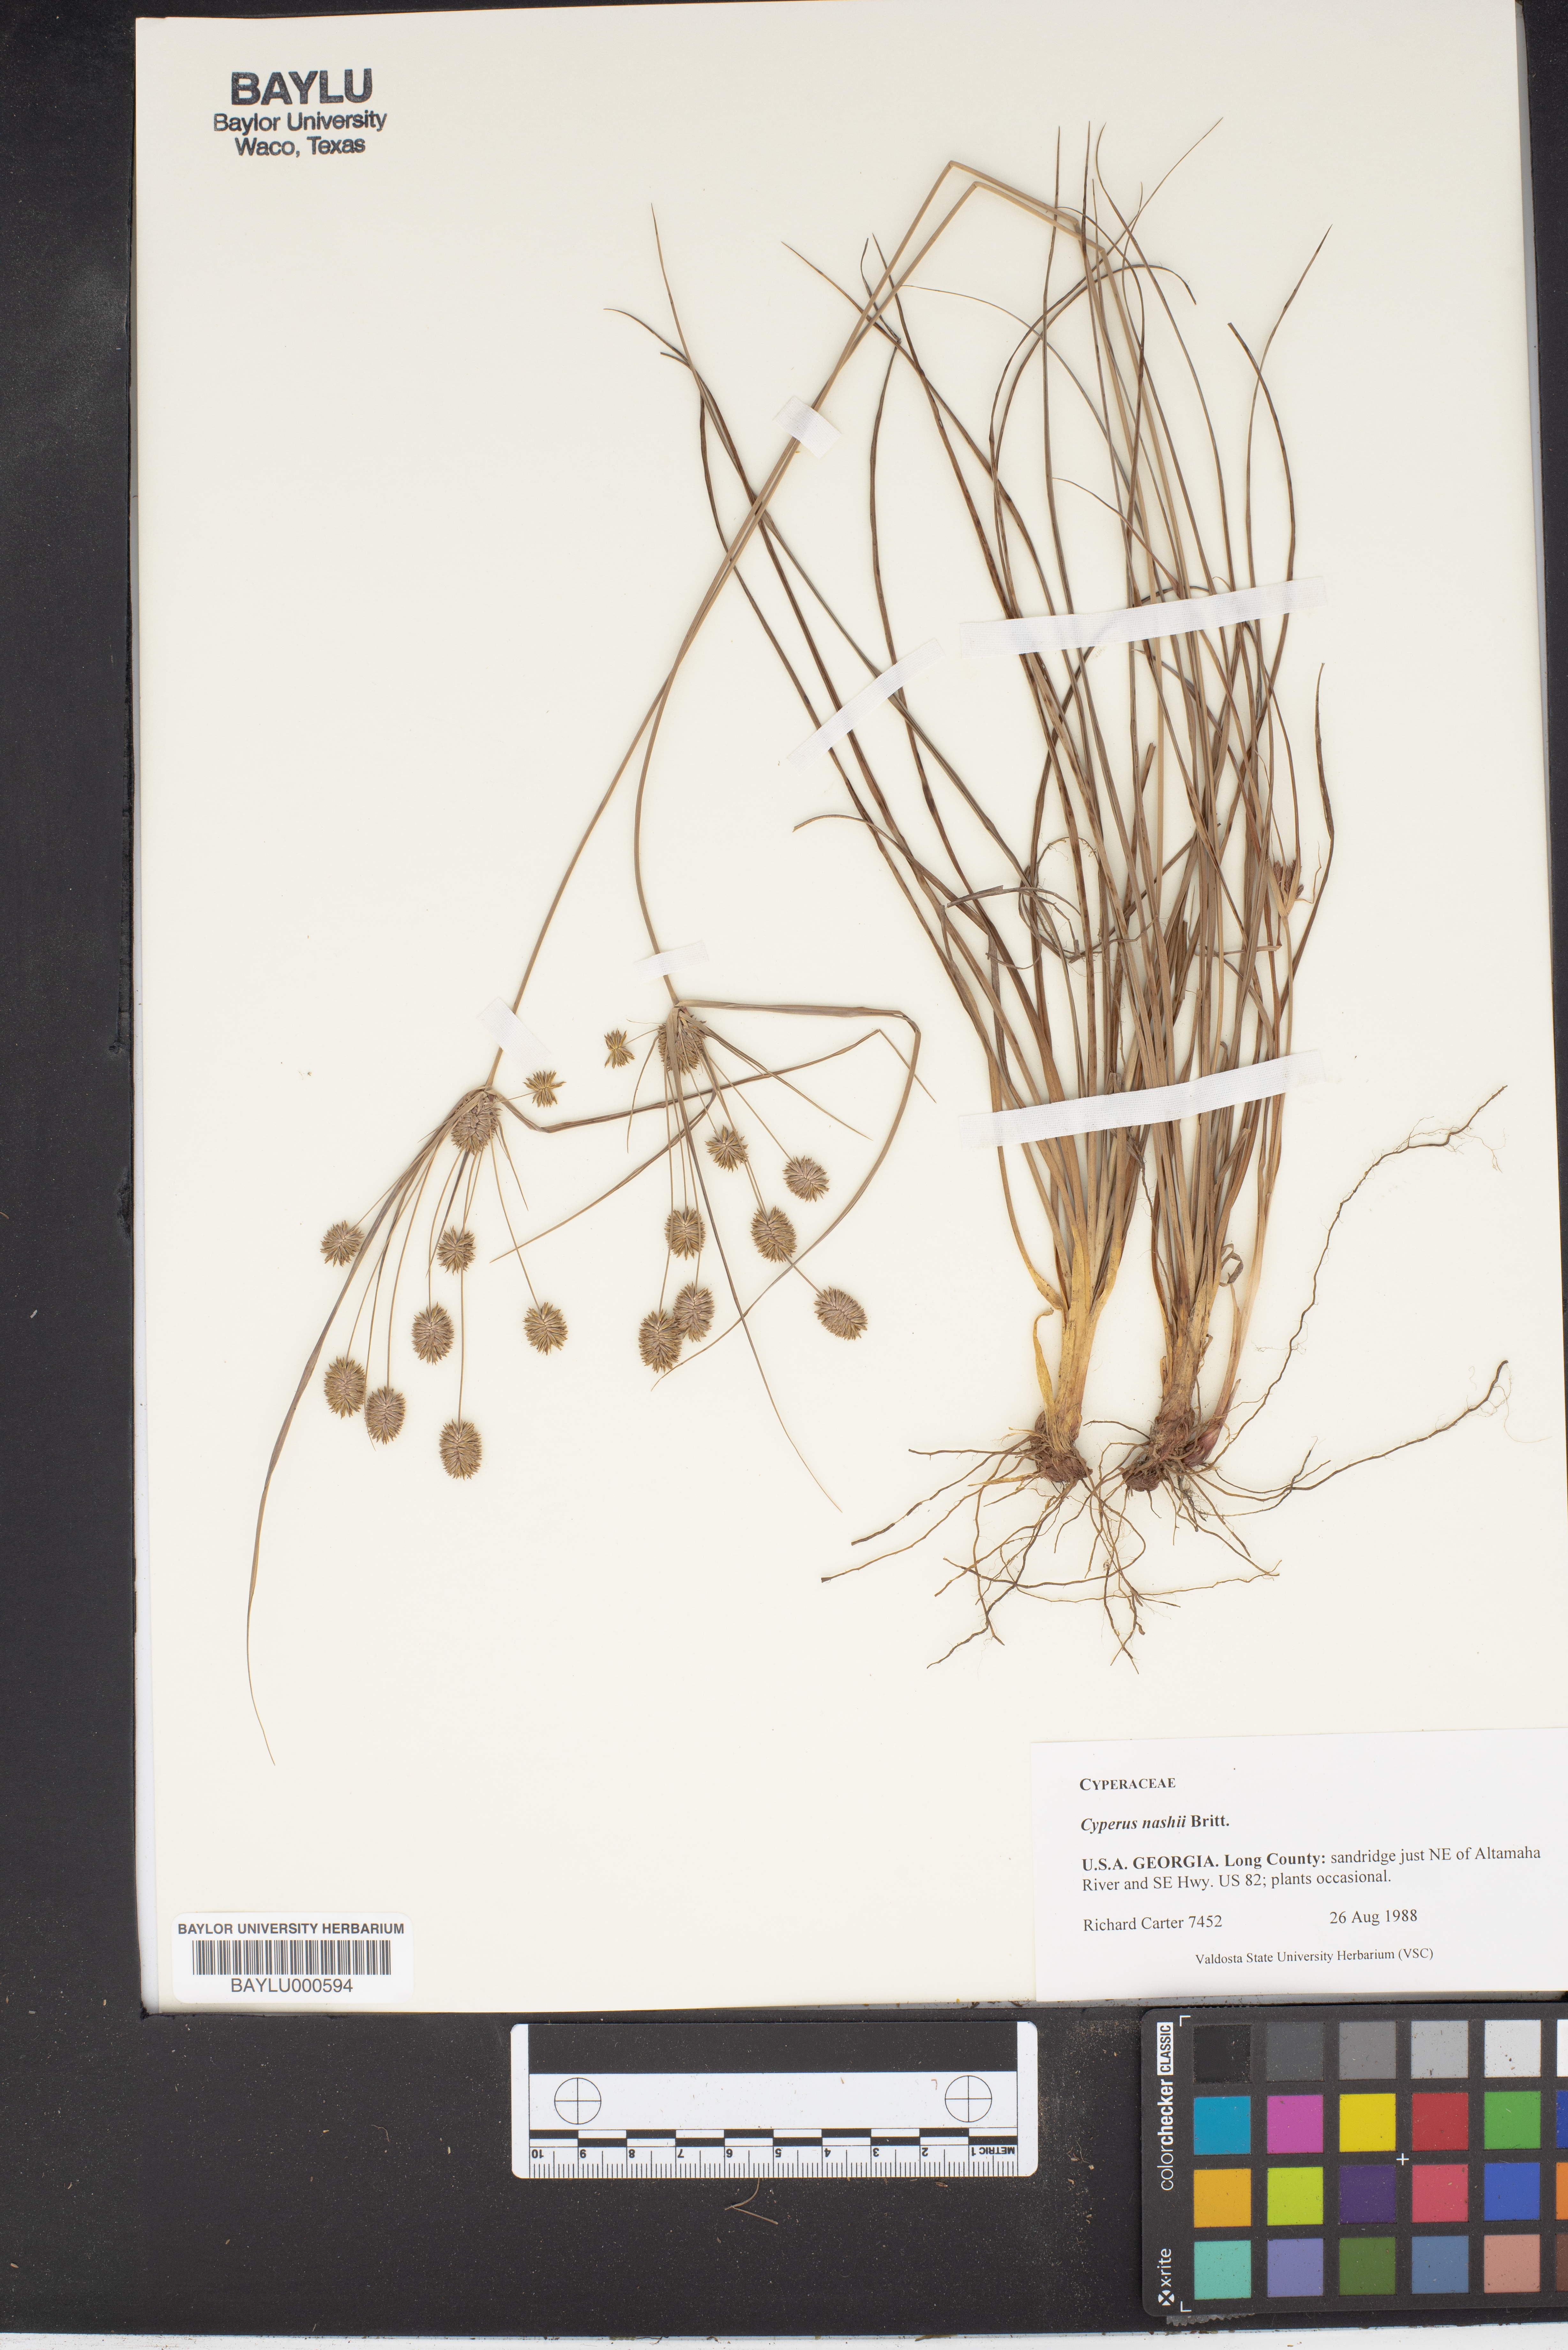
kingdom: Plantae
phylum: Tracheophyta
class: Liliopsida
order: Poales
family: Cyperaceae
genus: Cyperus
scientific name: Cyperus retrorsus
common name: Pinebarren flat sedge
